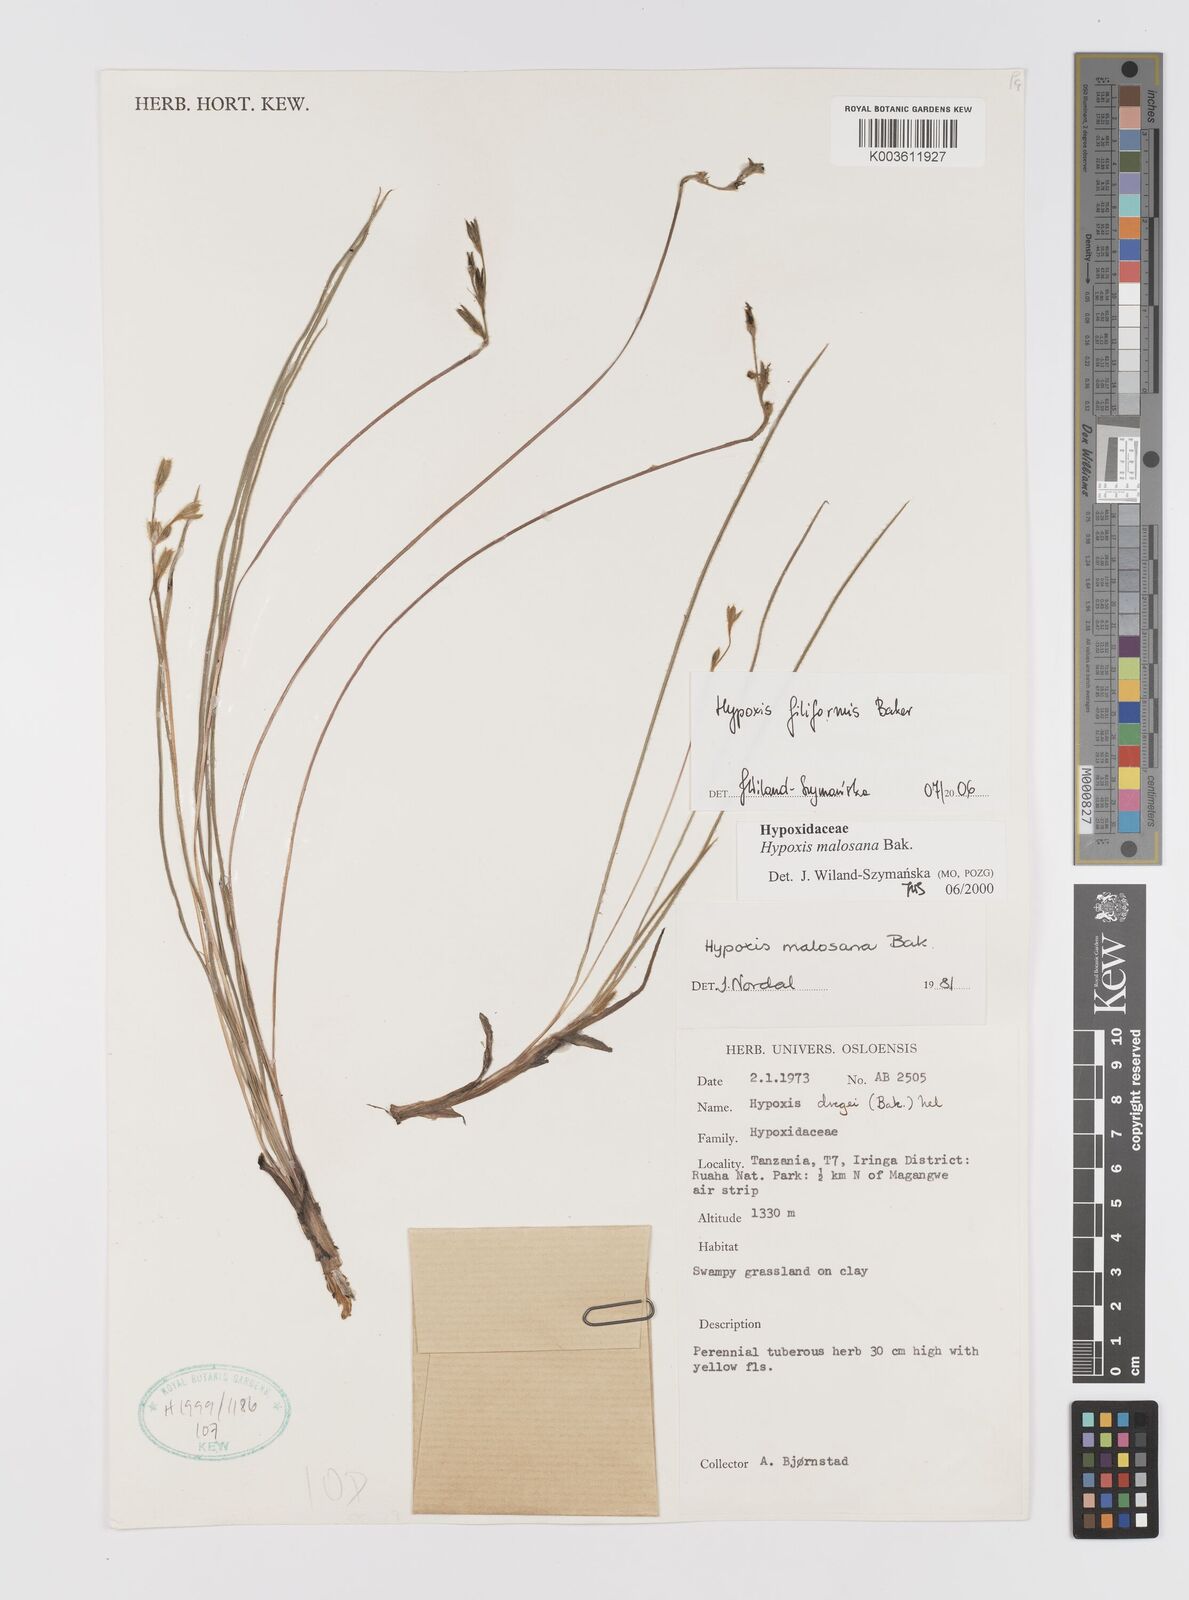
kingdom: Plantae
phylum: Tracheophyta
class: Liliopsida
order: Asparagales
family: Hypoxidaceae
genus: Hypoxis
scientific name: Hypoxis filiformis
